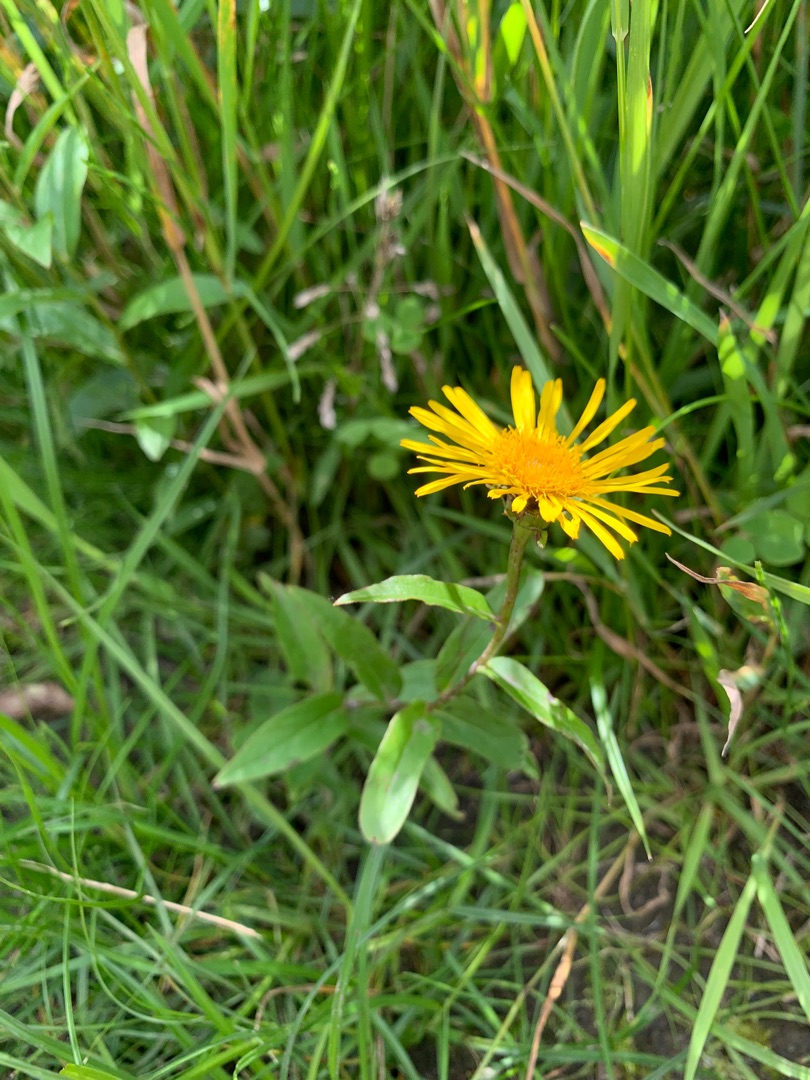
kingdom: Plantae
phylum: Tracheophyta
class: Magnoliopsida
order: Asterales
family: Asteraceae
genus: Pentanema
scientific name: Pentanema salicinum
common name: Pile-alant
